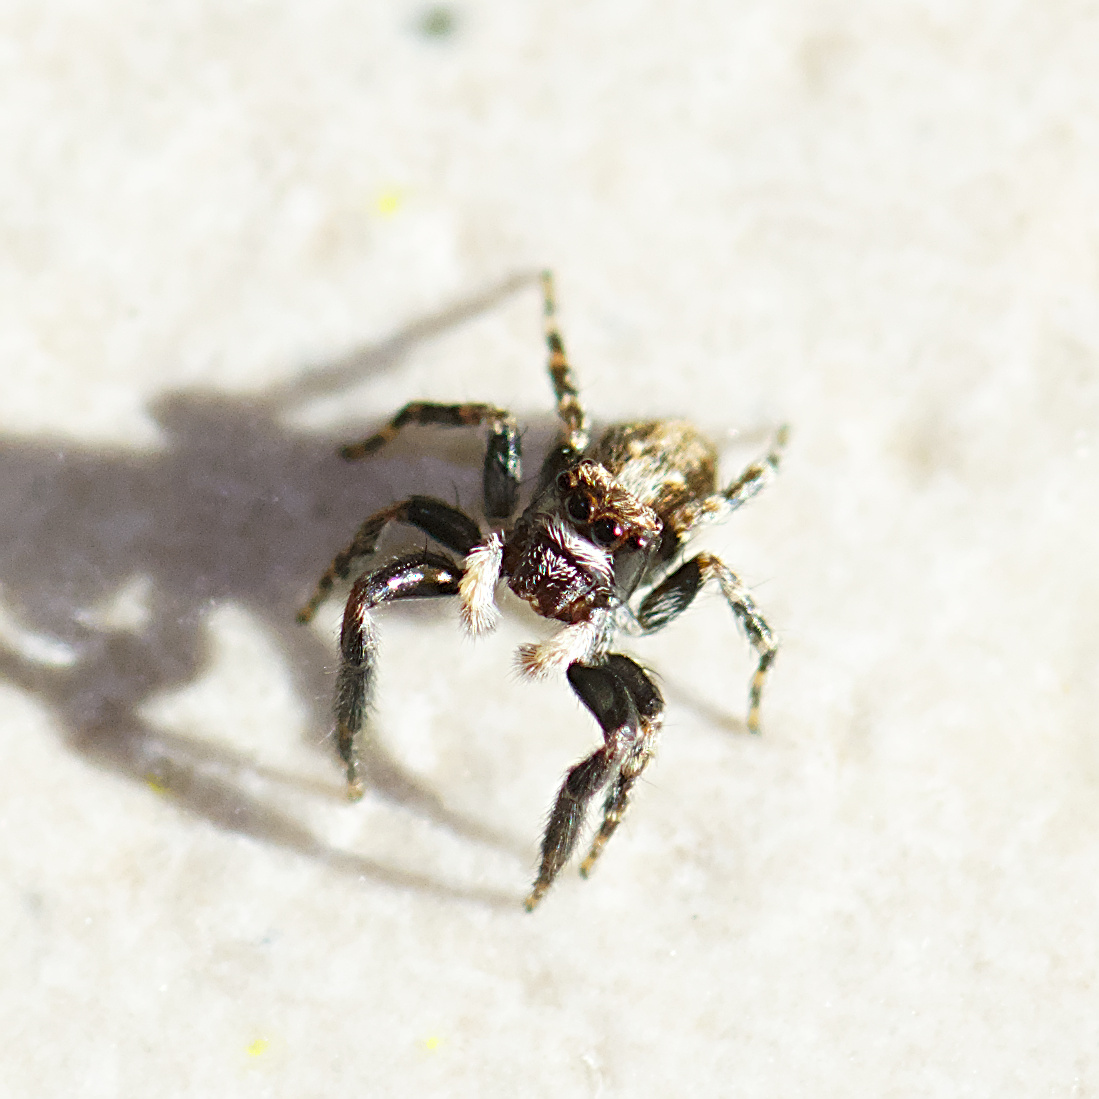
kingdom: Animalia
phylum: Arthropoda
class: Arachnida
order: Araneae
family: Salticidae
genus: Pseudeuophrys
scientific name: Pseudeuophrys lanigera
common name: Vinduesspringer
